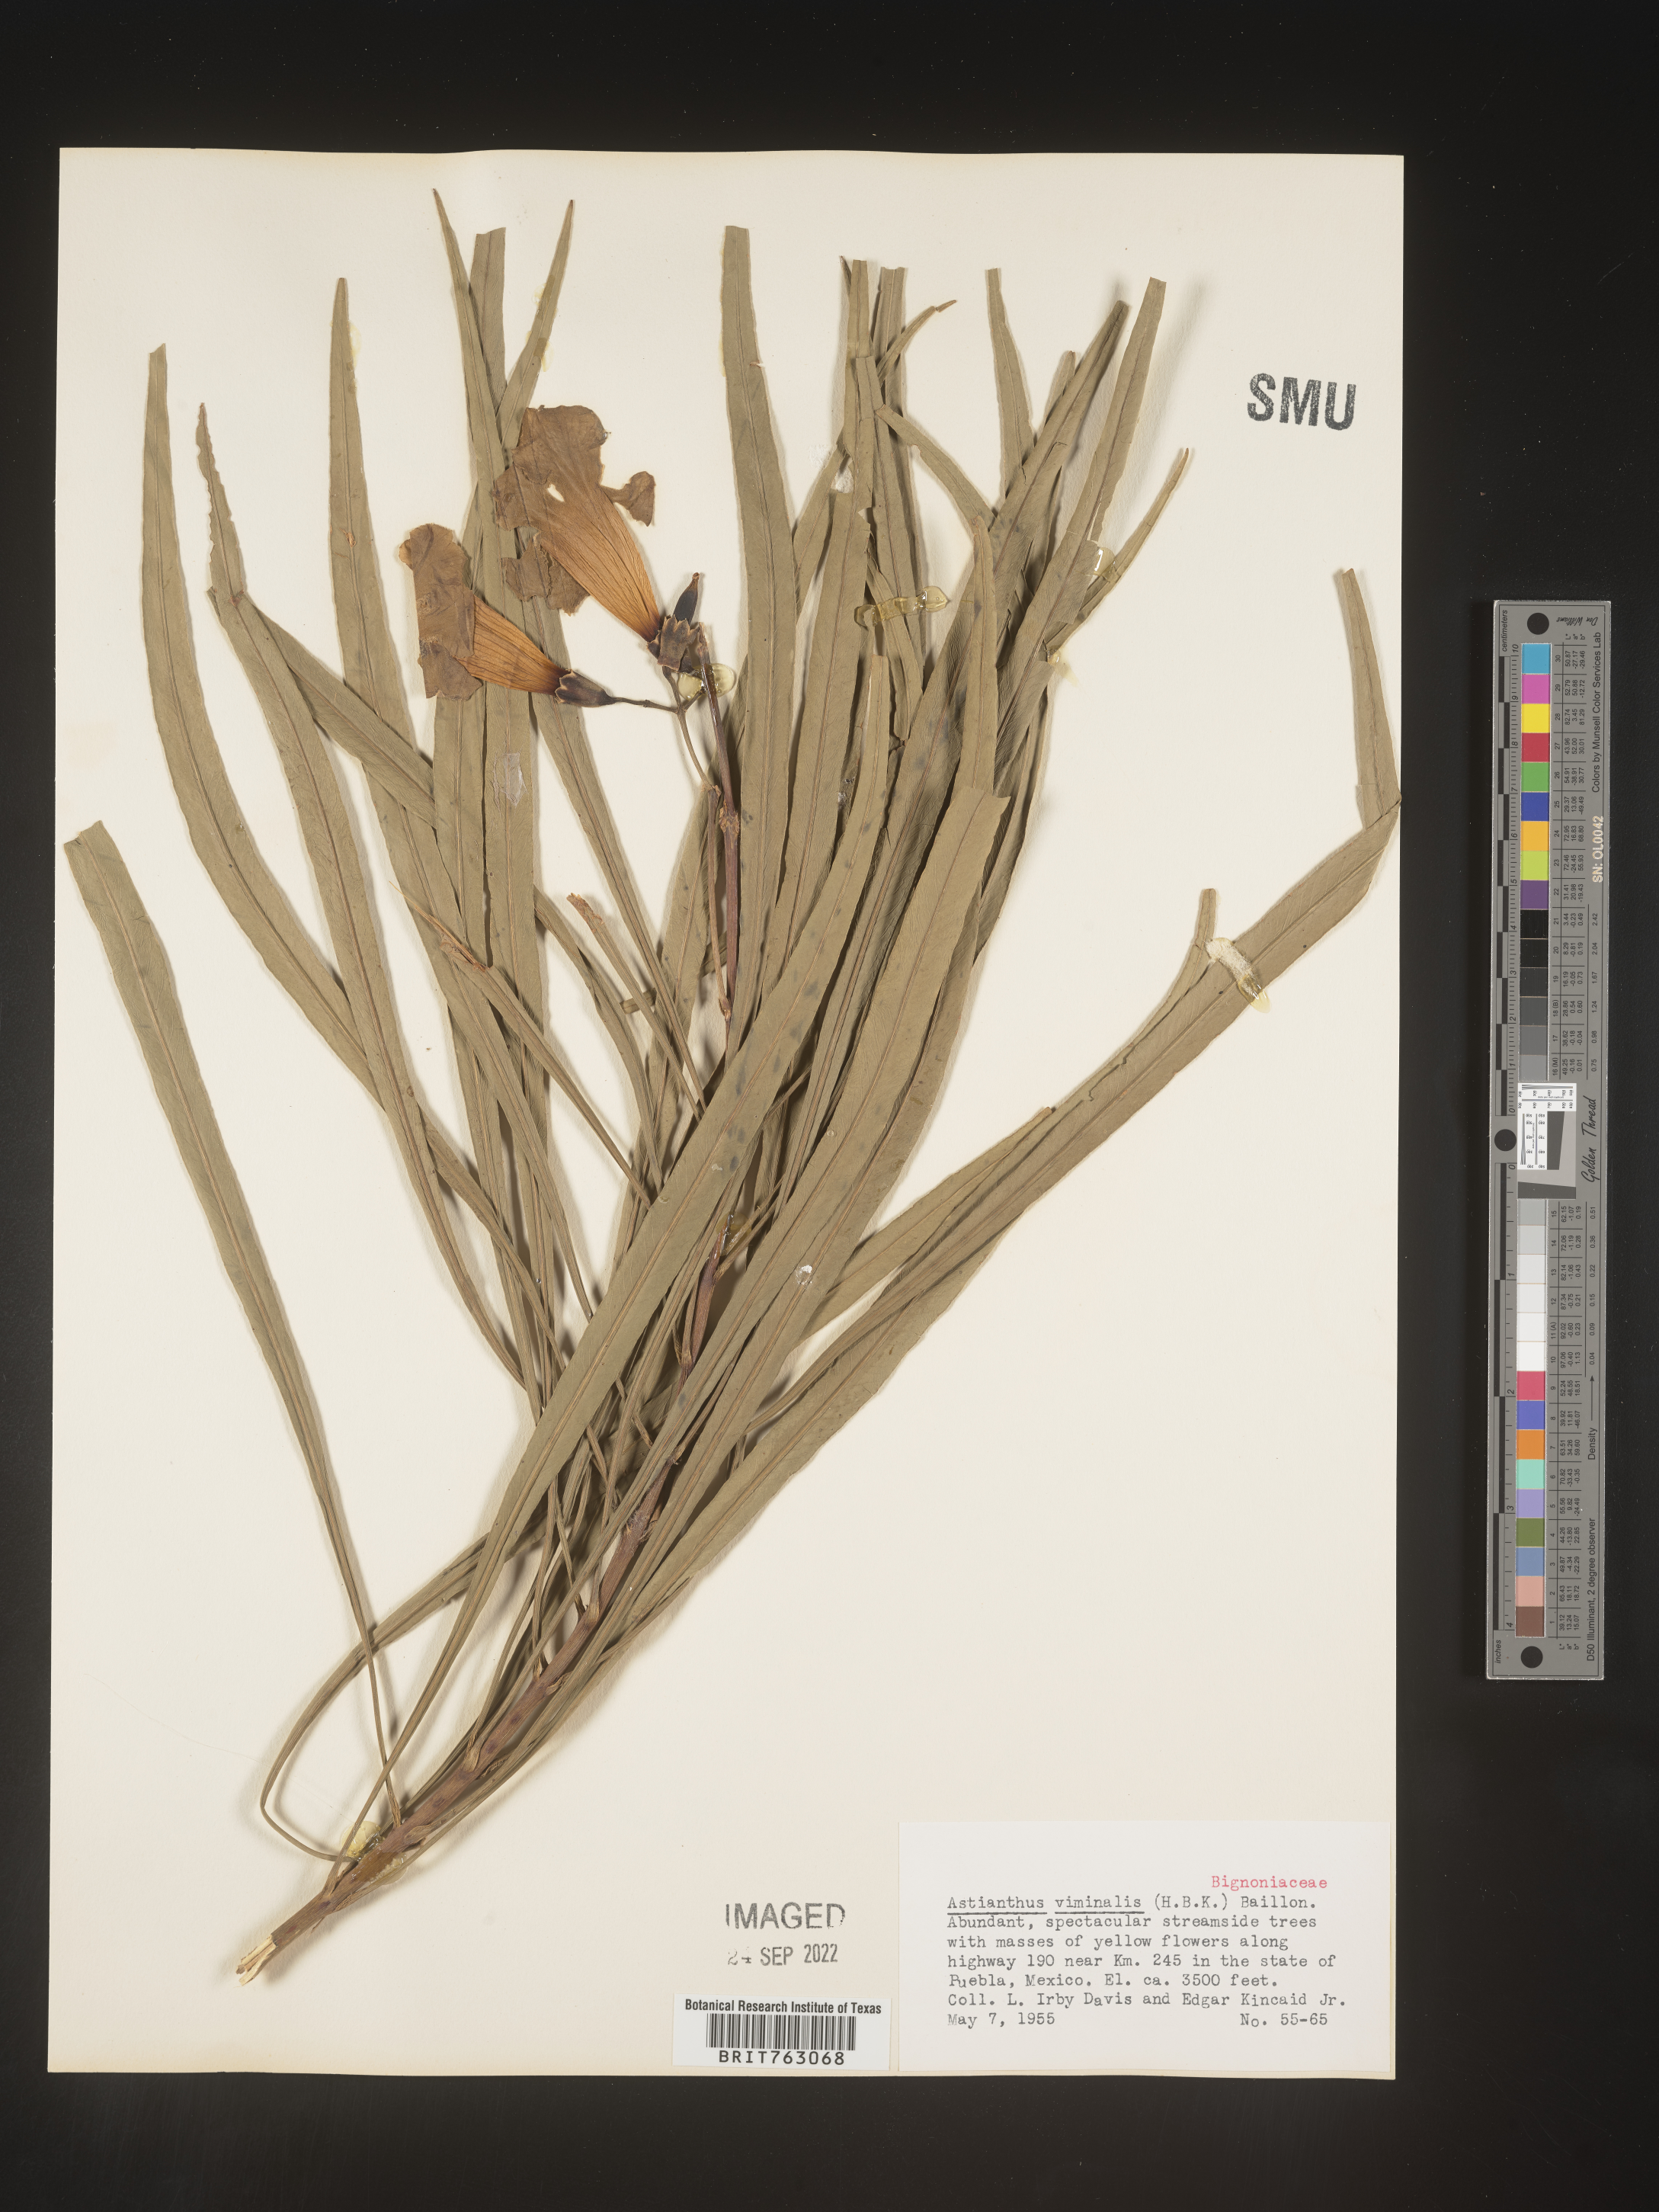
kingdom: Plantae
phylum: Tracheophyta
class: Magnoliopsida
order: Lamiales
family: Bignoniaceae
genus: Astianthus
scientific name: Astianthus
